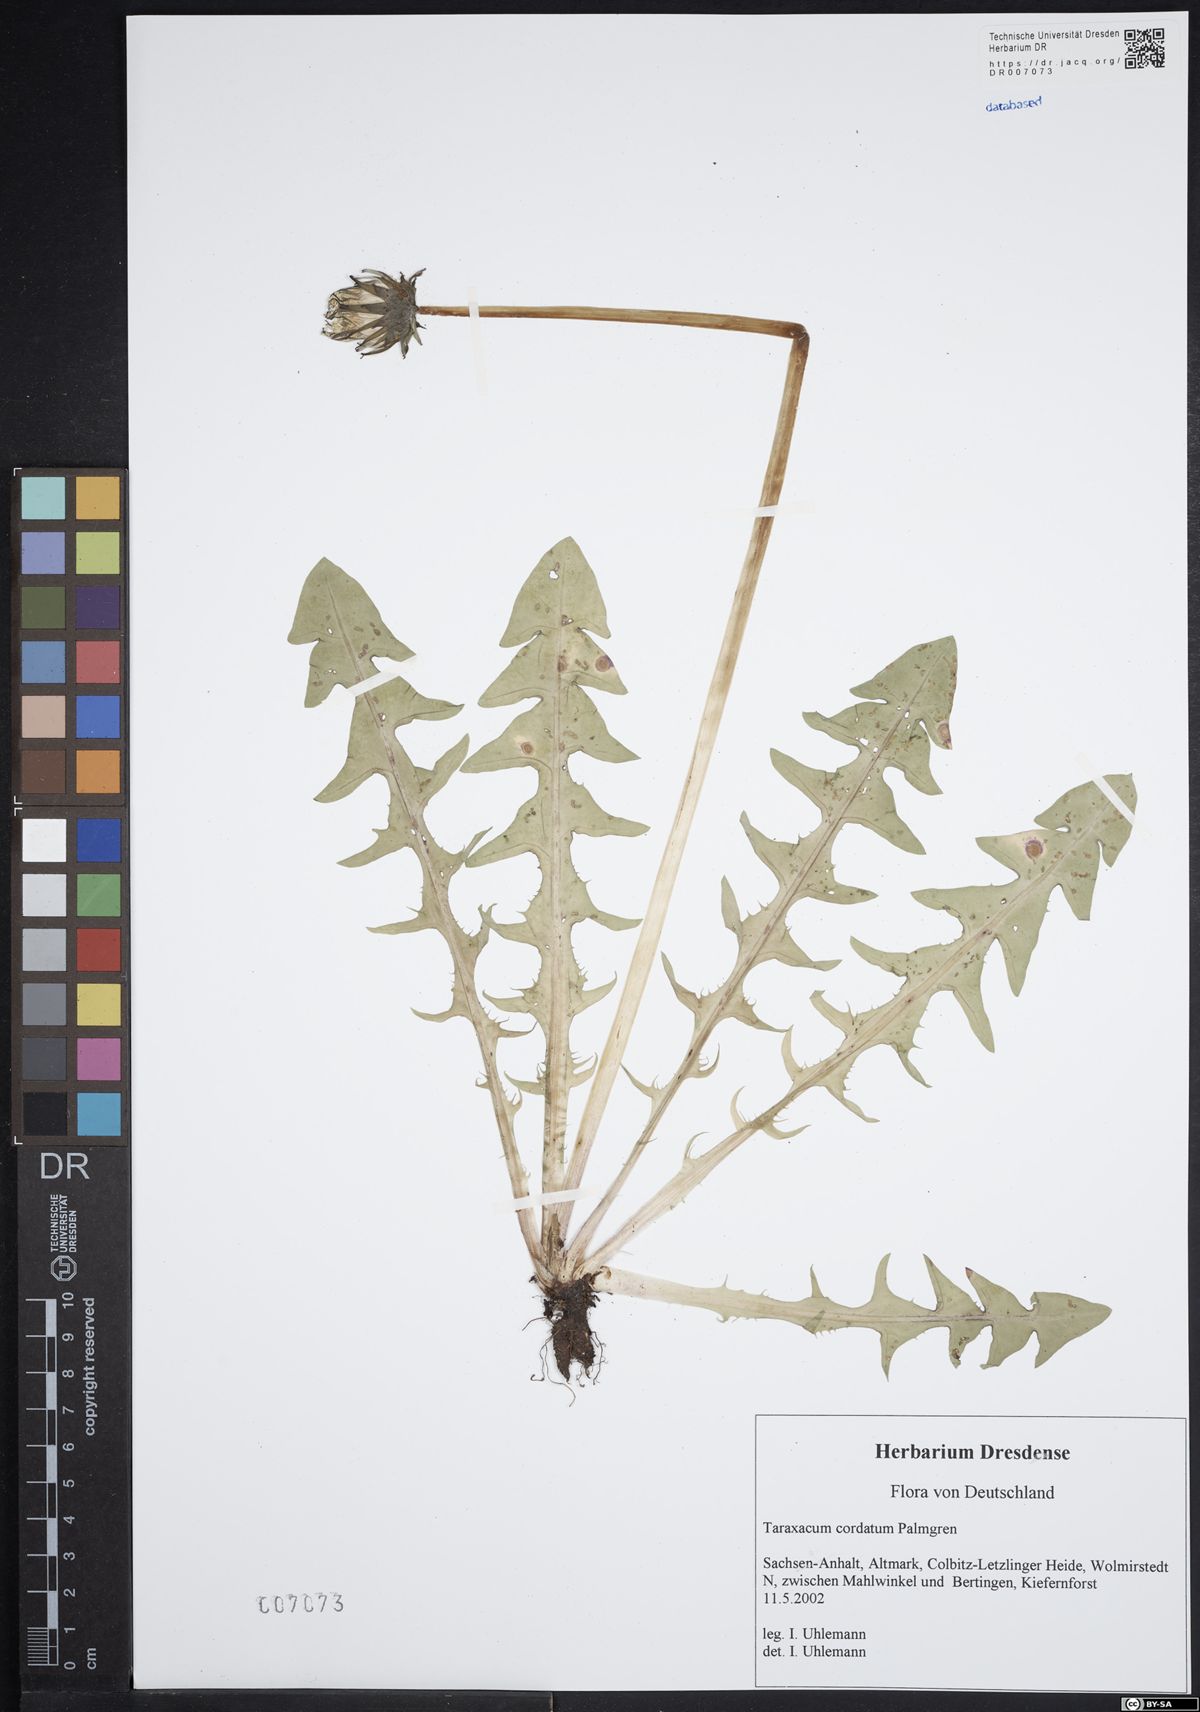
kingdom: Plantae
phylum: Tracheophyta
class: Magnoliopsida
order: Asterales
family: Asteraceae
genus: Taraxacum
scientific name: Taraxacum cordatum
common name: Entire-lobed dandelion
